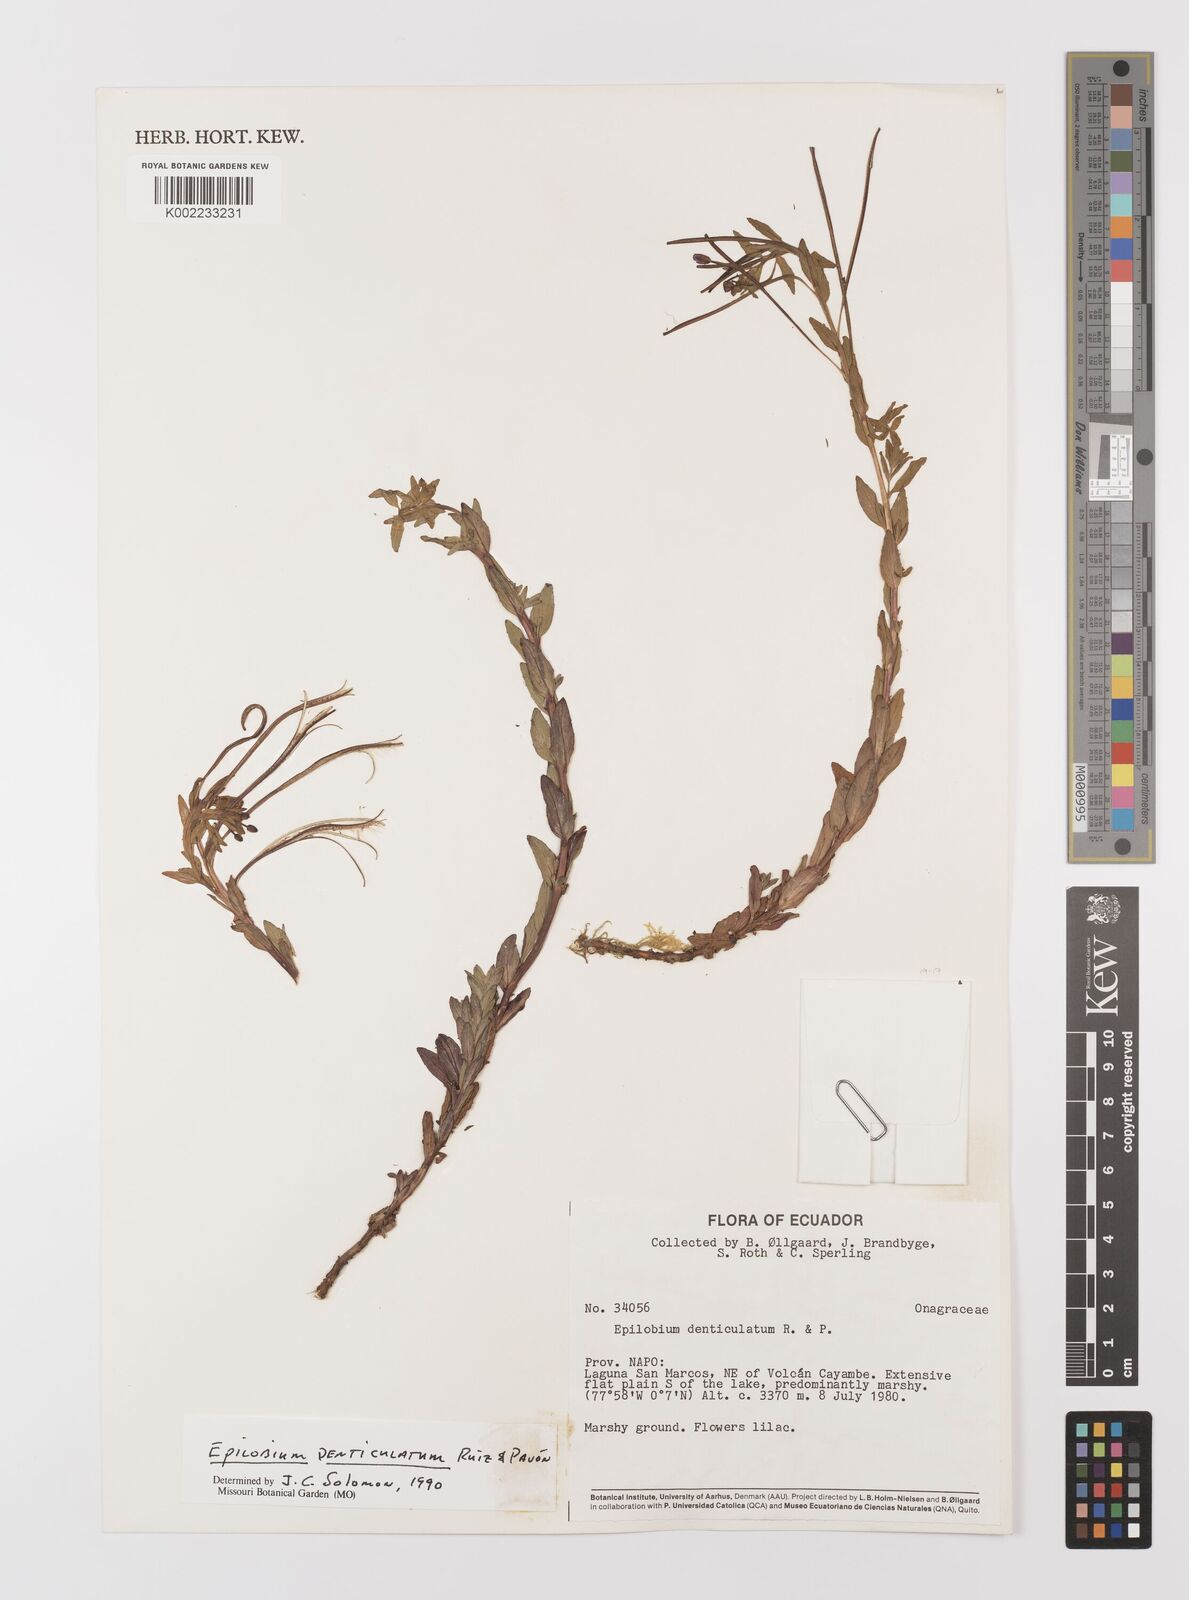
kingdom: Plantae
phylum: Tracheophyta
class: Magnoliopsida
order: Myrtales
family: Onagraceae
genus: Epilobium
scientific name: Epilobium denticulatum
